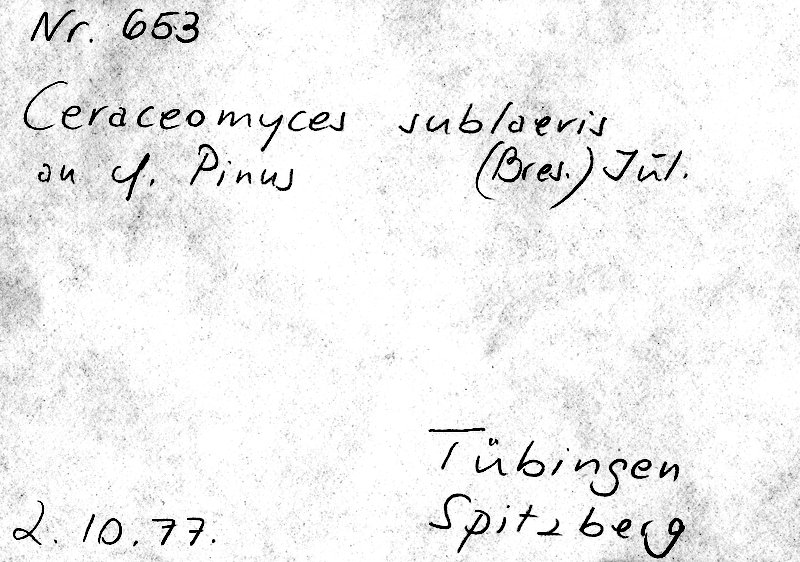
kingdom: Fungi
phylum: Basidiomycota
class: Agaricomycetes
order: Amylocorticiales
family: Amylocorticiaceae
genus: Ceraceomyces
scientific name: Ceraceomyces sublaevis
